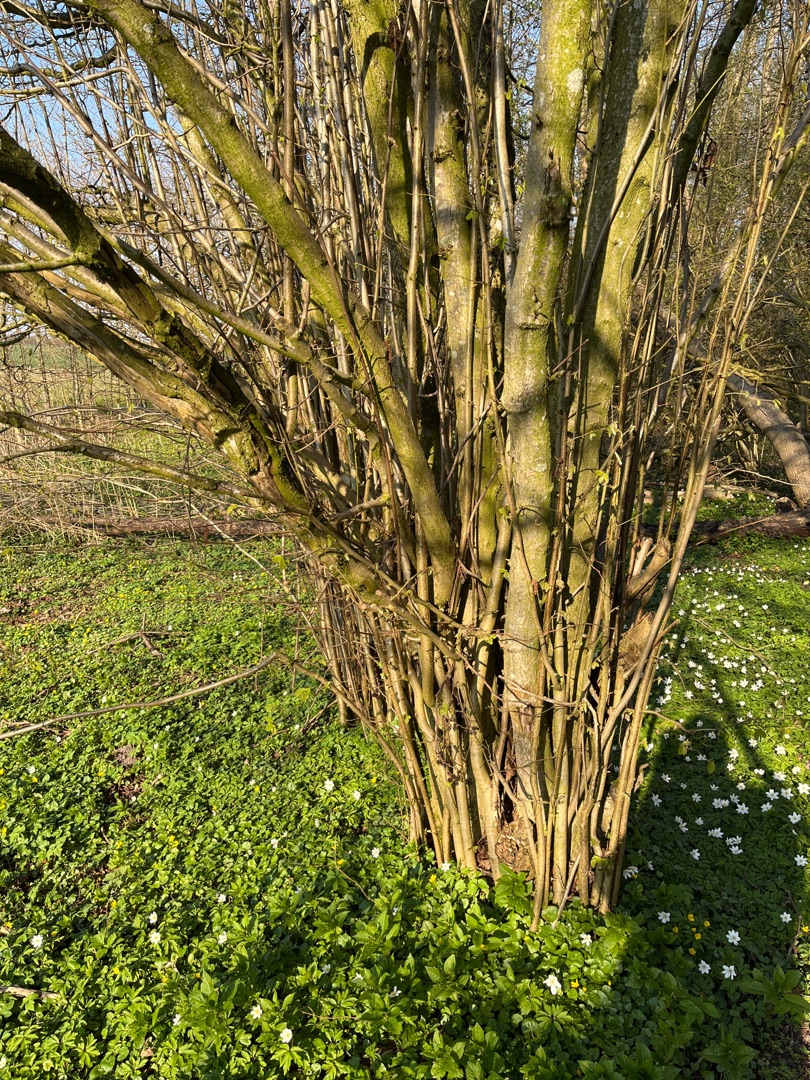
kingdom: Plantae
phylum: Tracheophyta
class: Magnoliopsida
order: Fagales
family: Betulaceae
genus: Corylus
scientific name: Corylus avellana
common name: Hassel
